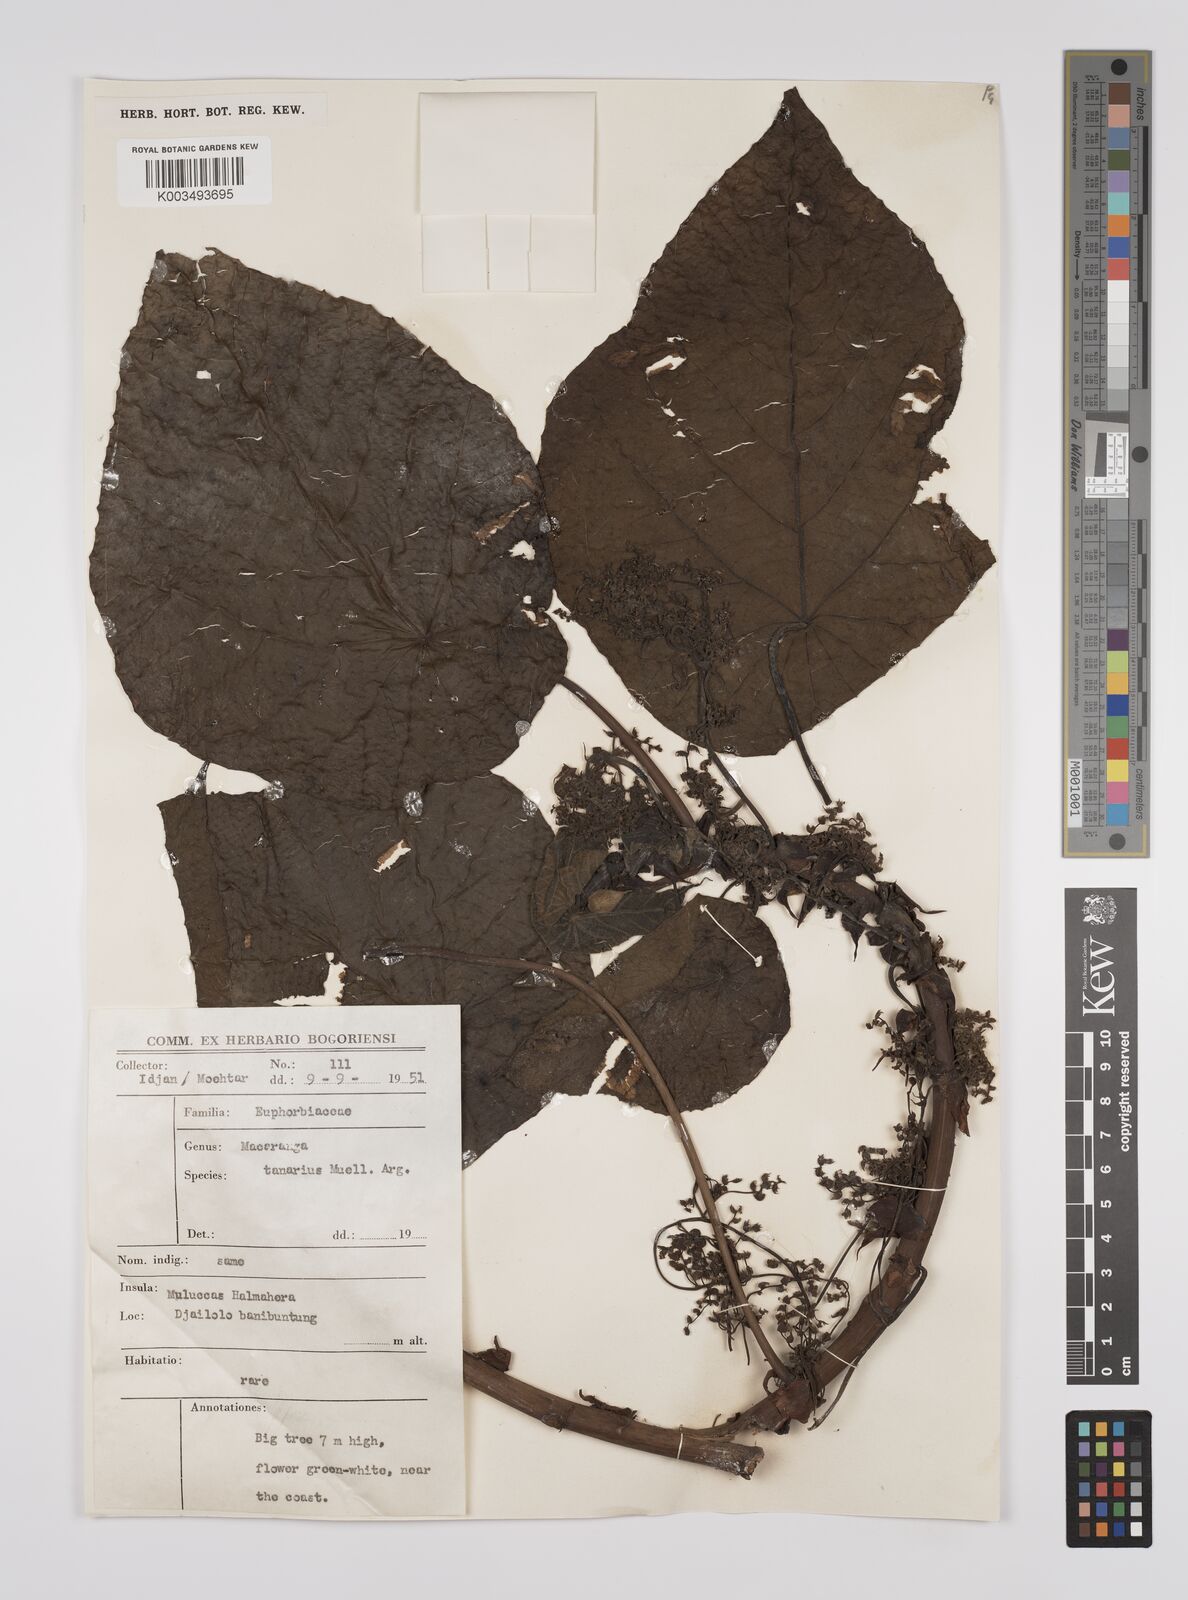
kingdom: Plantae
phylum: Tracheophyta
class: Magnoliopsida
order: Malpighiales
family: Euphorbiaceae
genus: Macaranga
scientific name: Macaranga tanarius
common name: Parasol leaf tree
